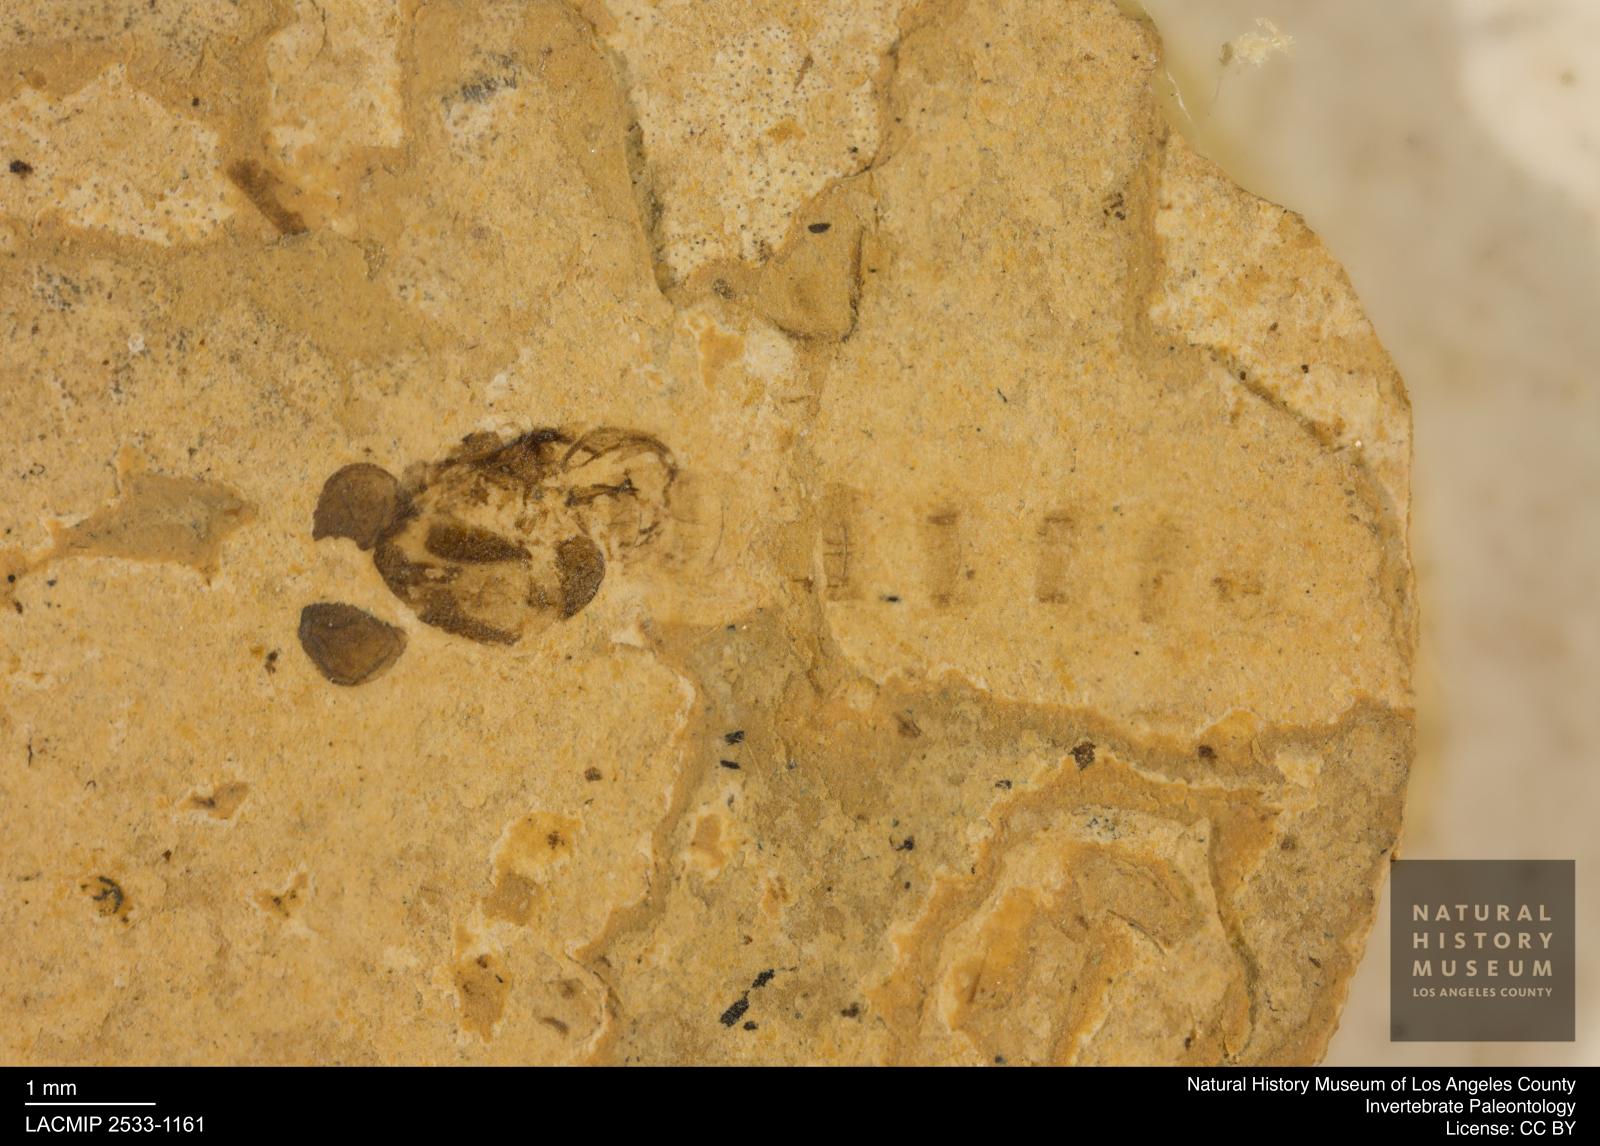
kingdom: Animalia
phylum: Arthropoda
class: Insecta
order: Diptera
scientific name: Diptera
